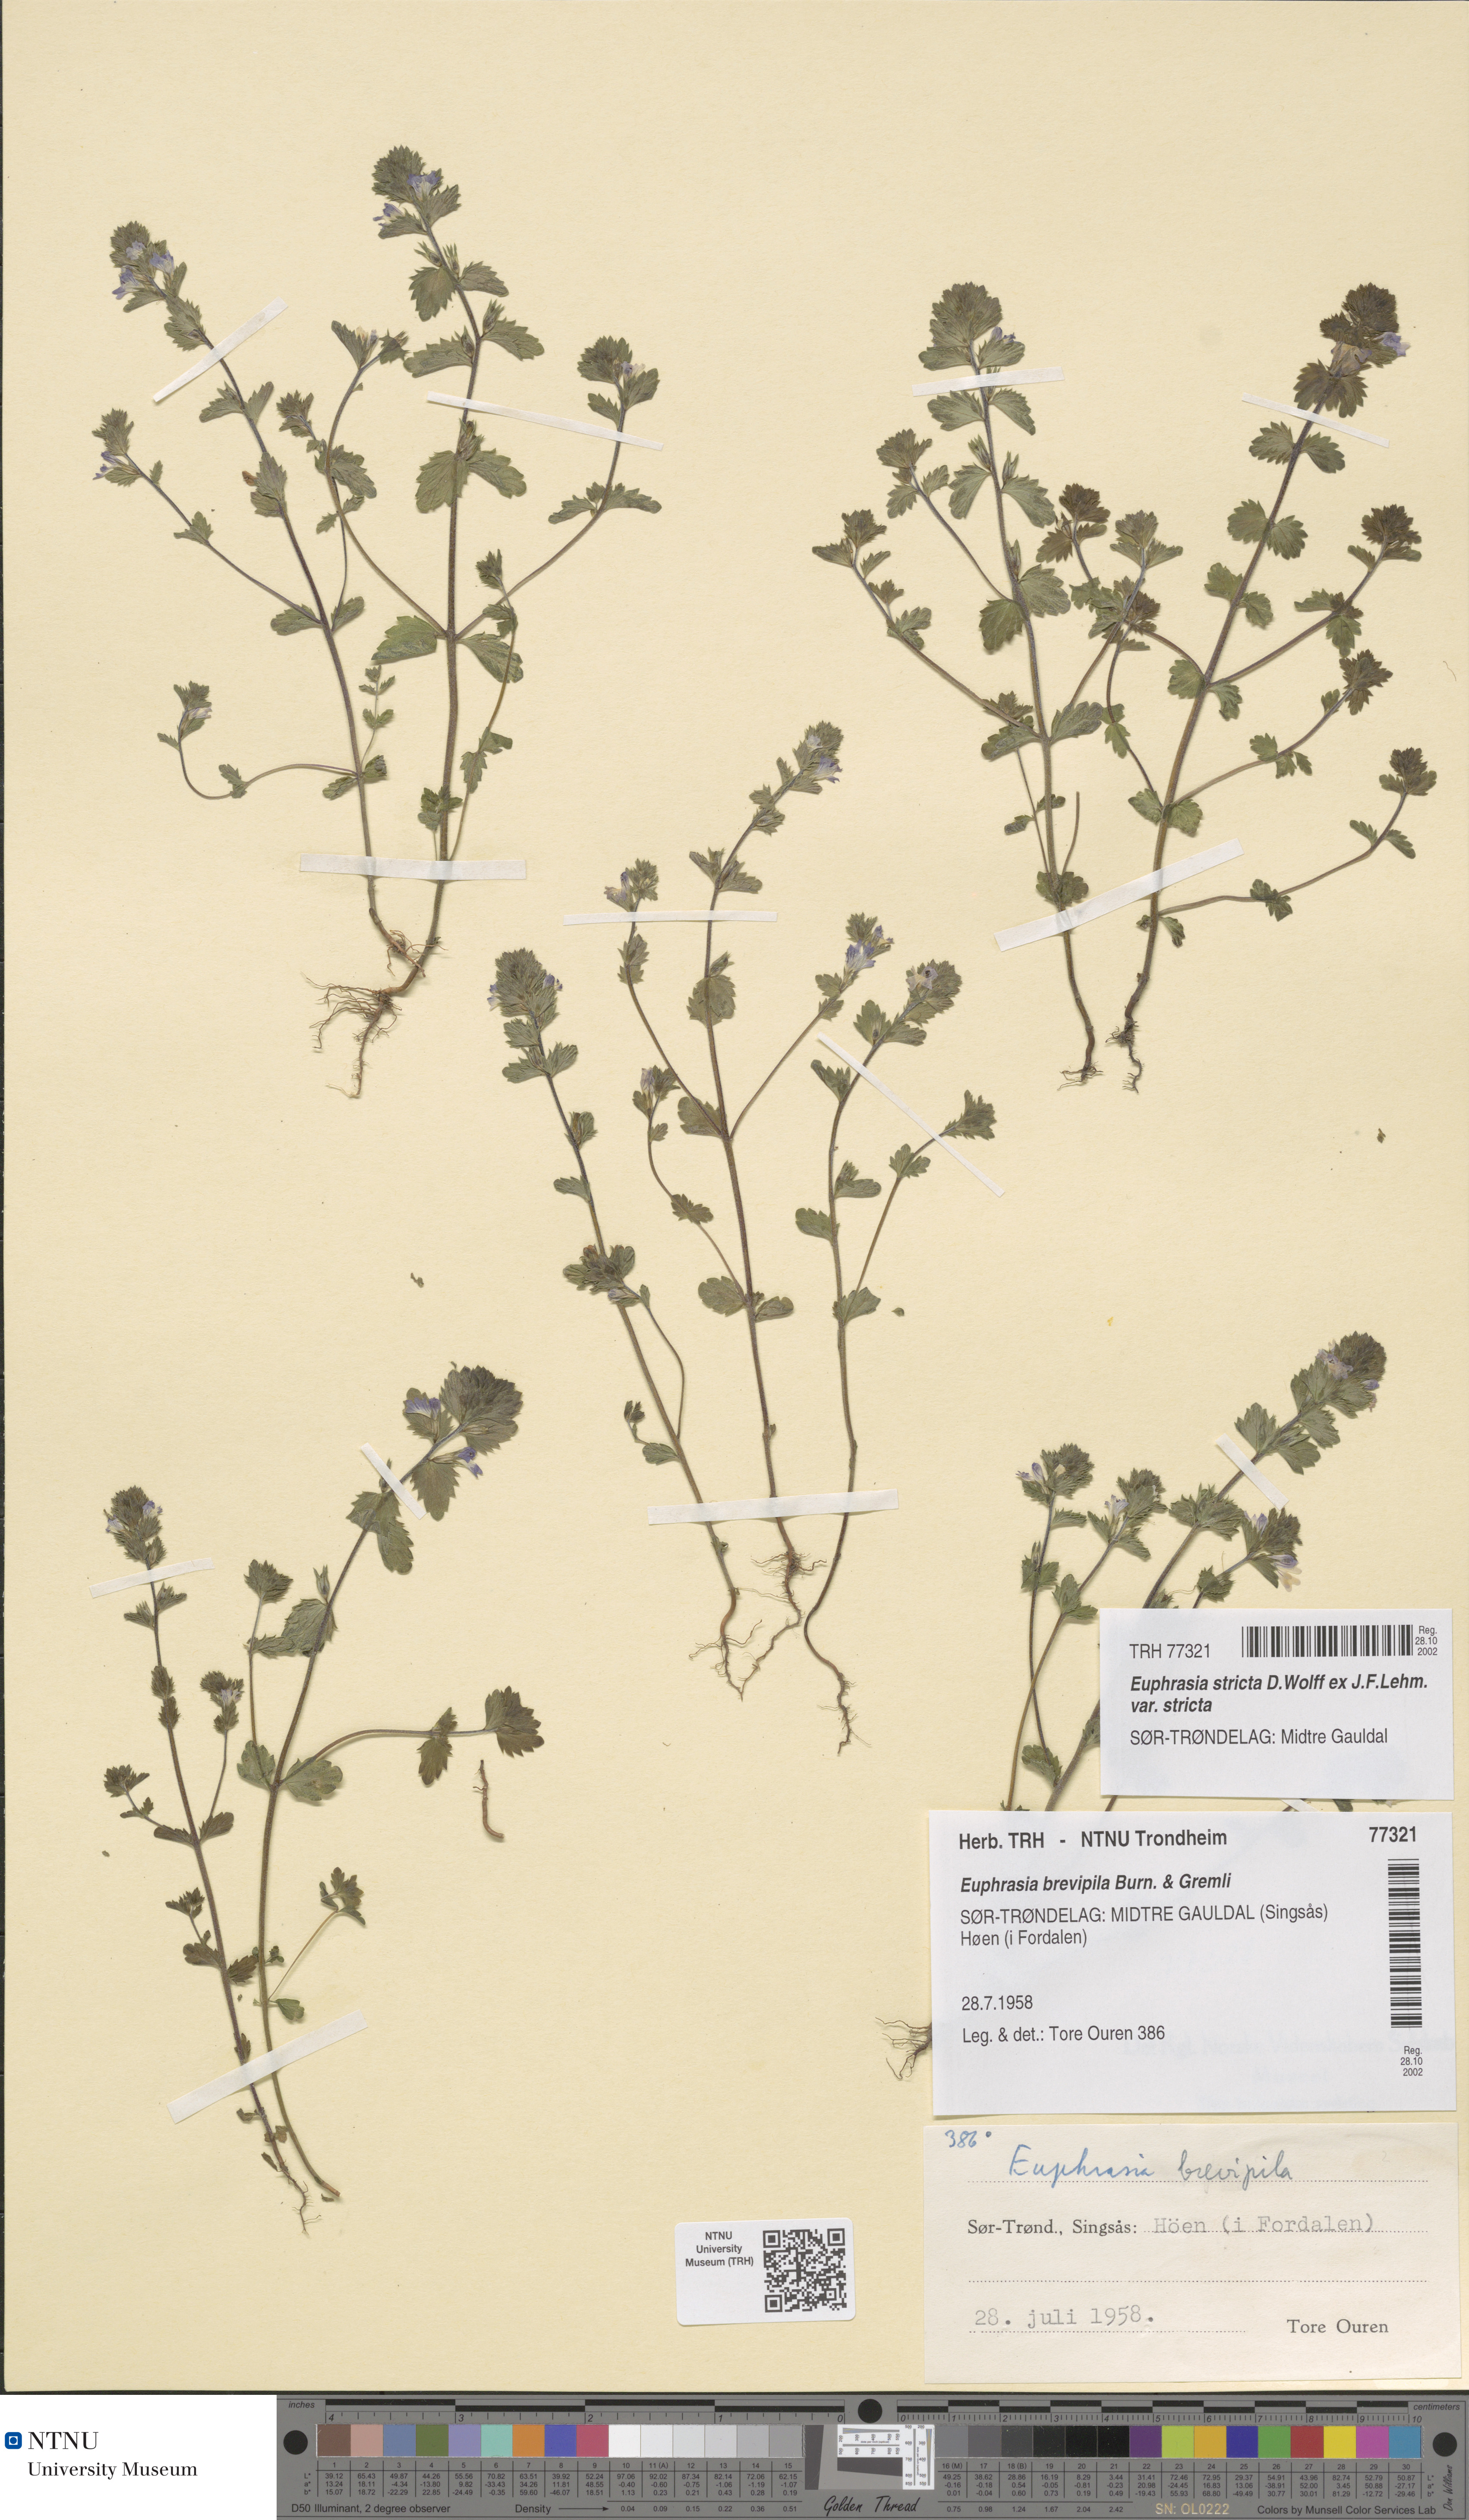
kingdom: Plantae
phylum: Tracheophyta
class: Magnoliopsida
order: Lamiales
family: Orobanchaceae
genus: Euphrasia
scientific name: Euphrasia vernalis
